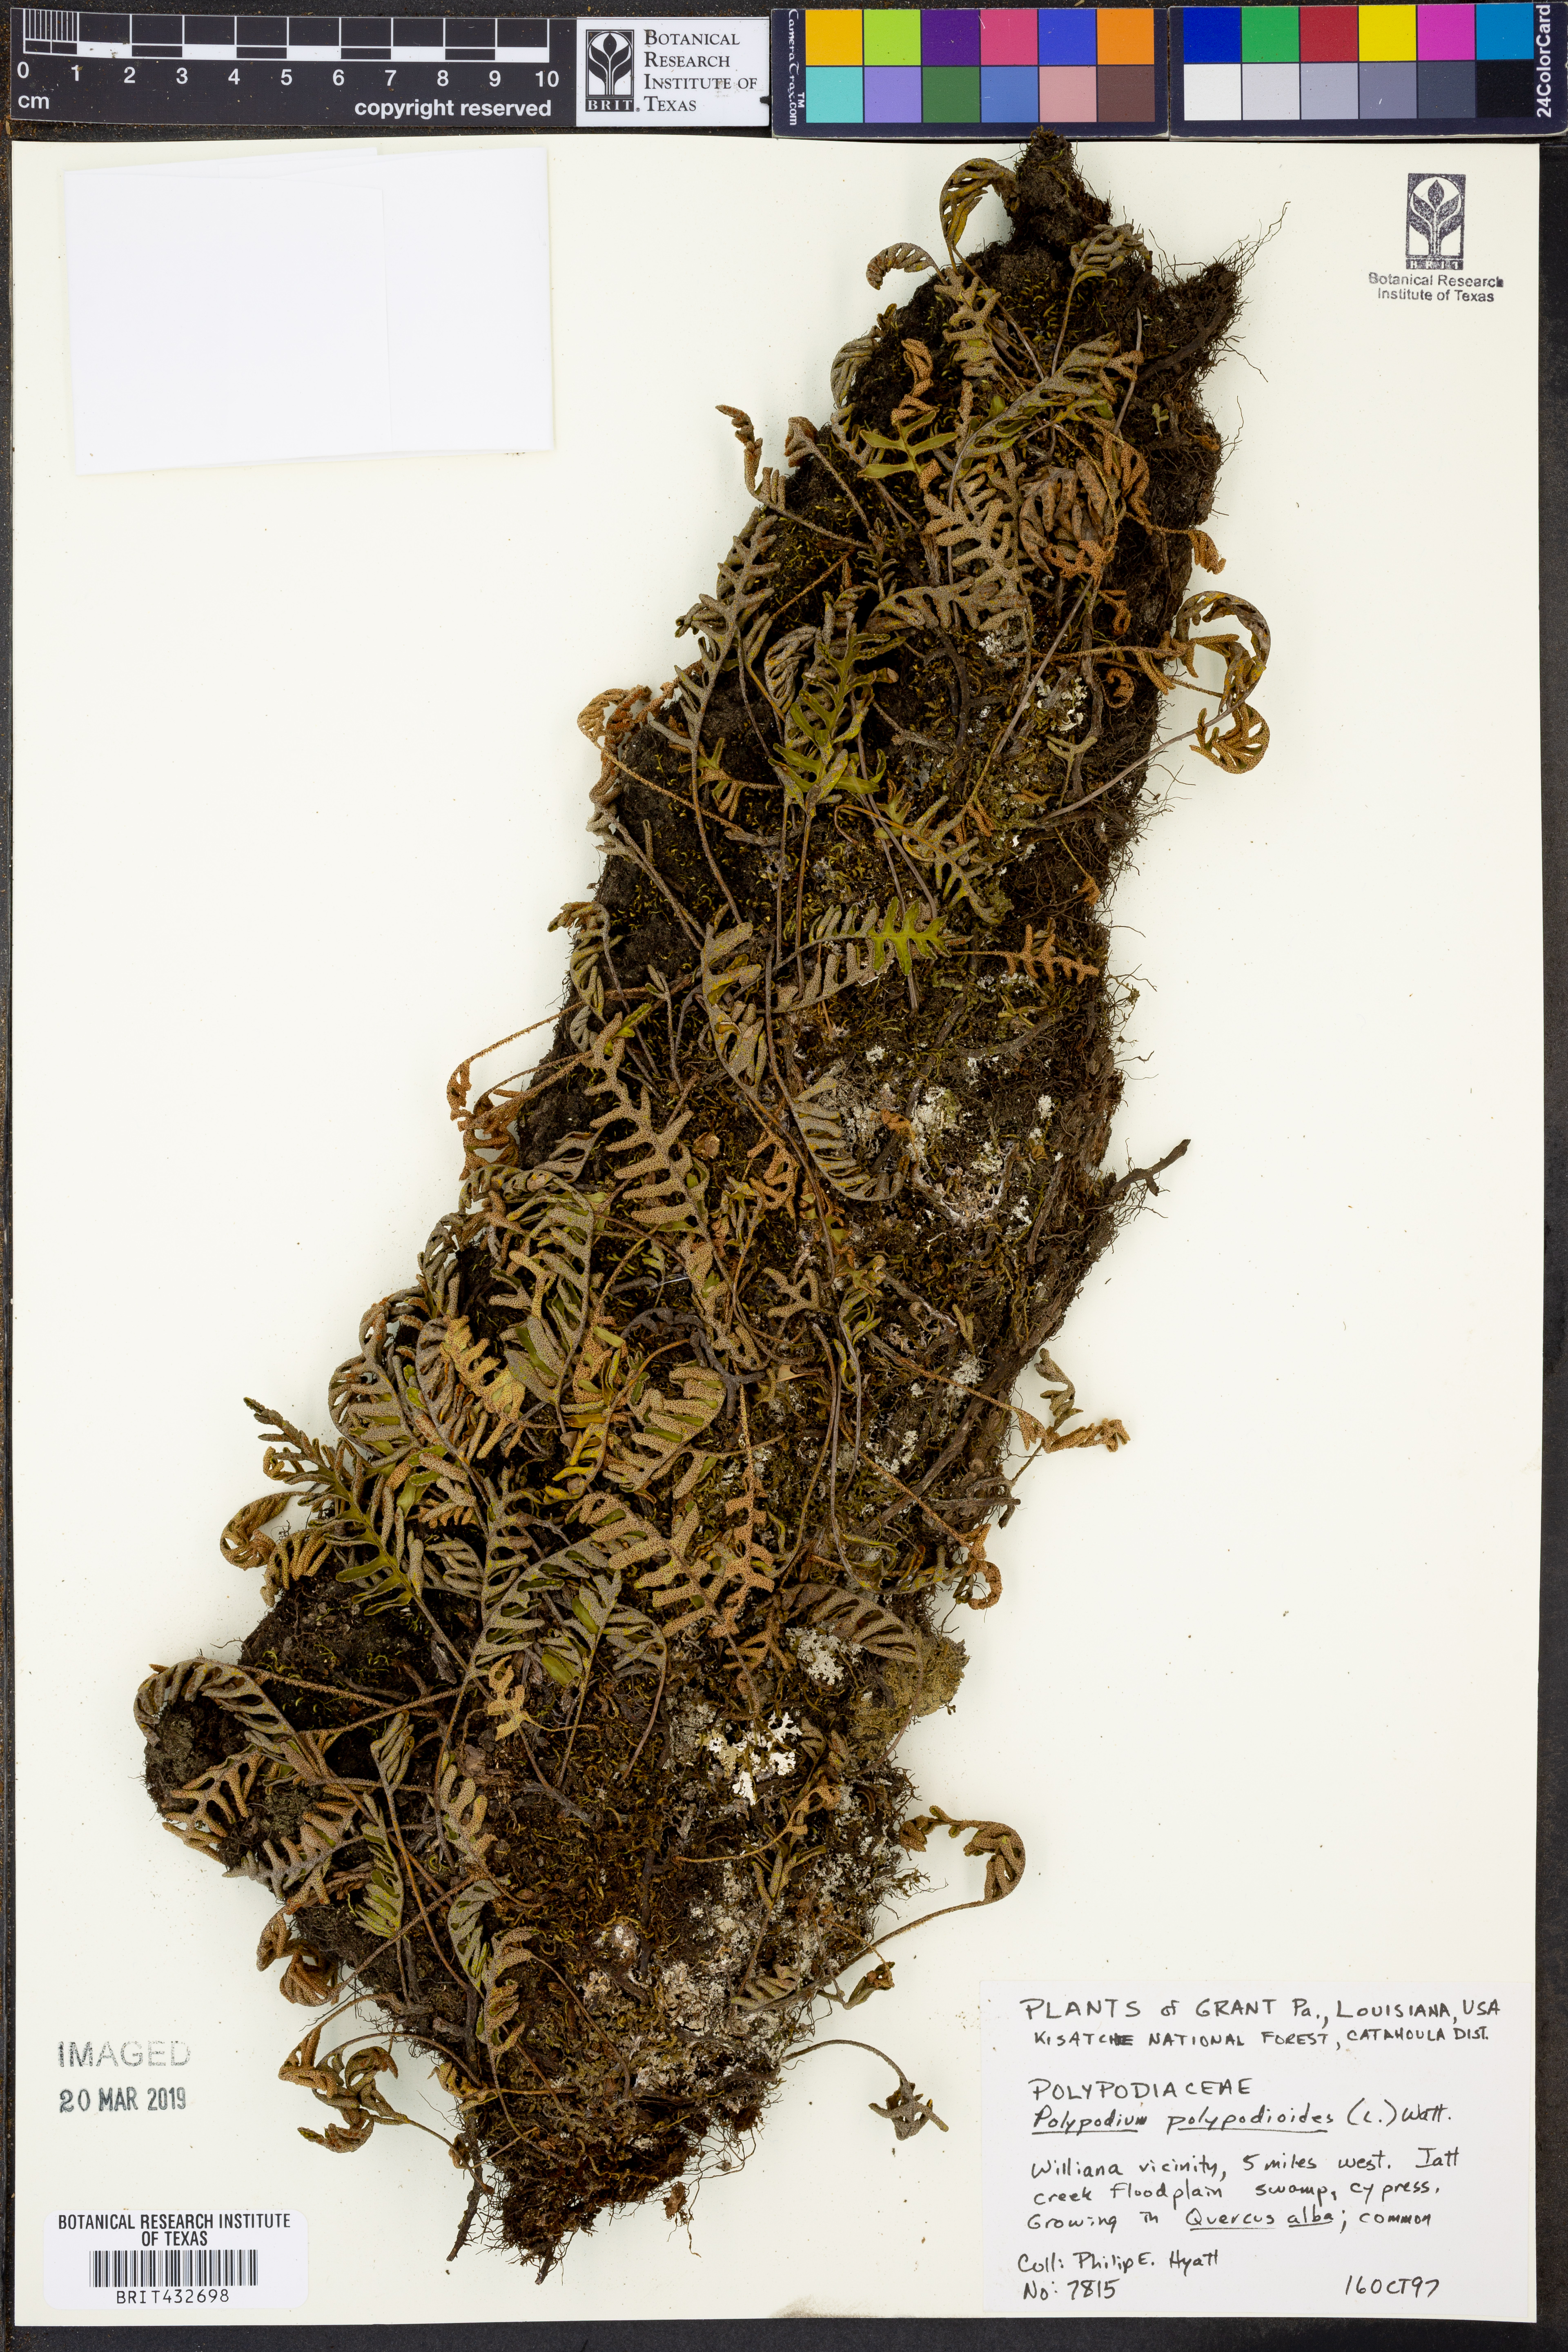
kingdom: Plantae
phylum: Tracheophyta
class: Polypodiopsida
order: Polypodiales
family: Polypodiaceae
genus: Pleopeltis
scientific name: Pleopeltis polypodioides
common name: Resurrection fern
